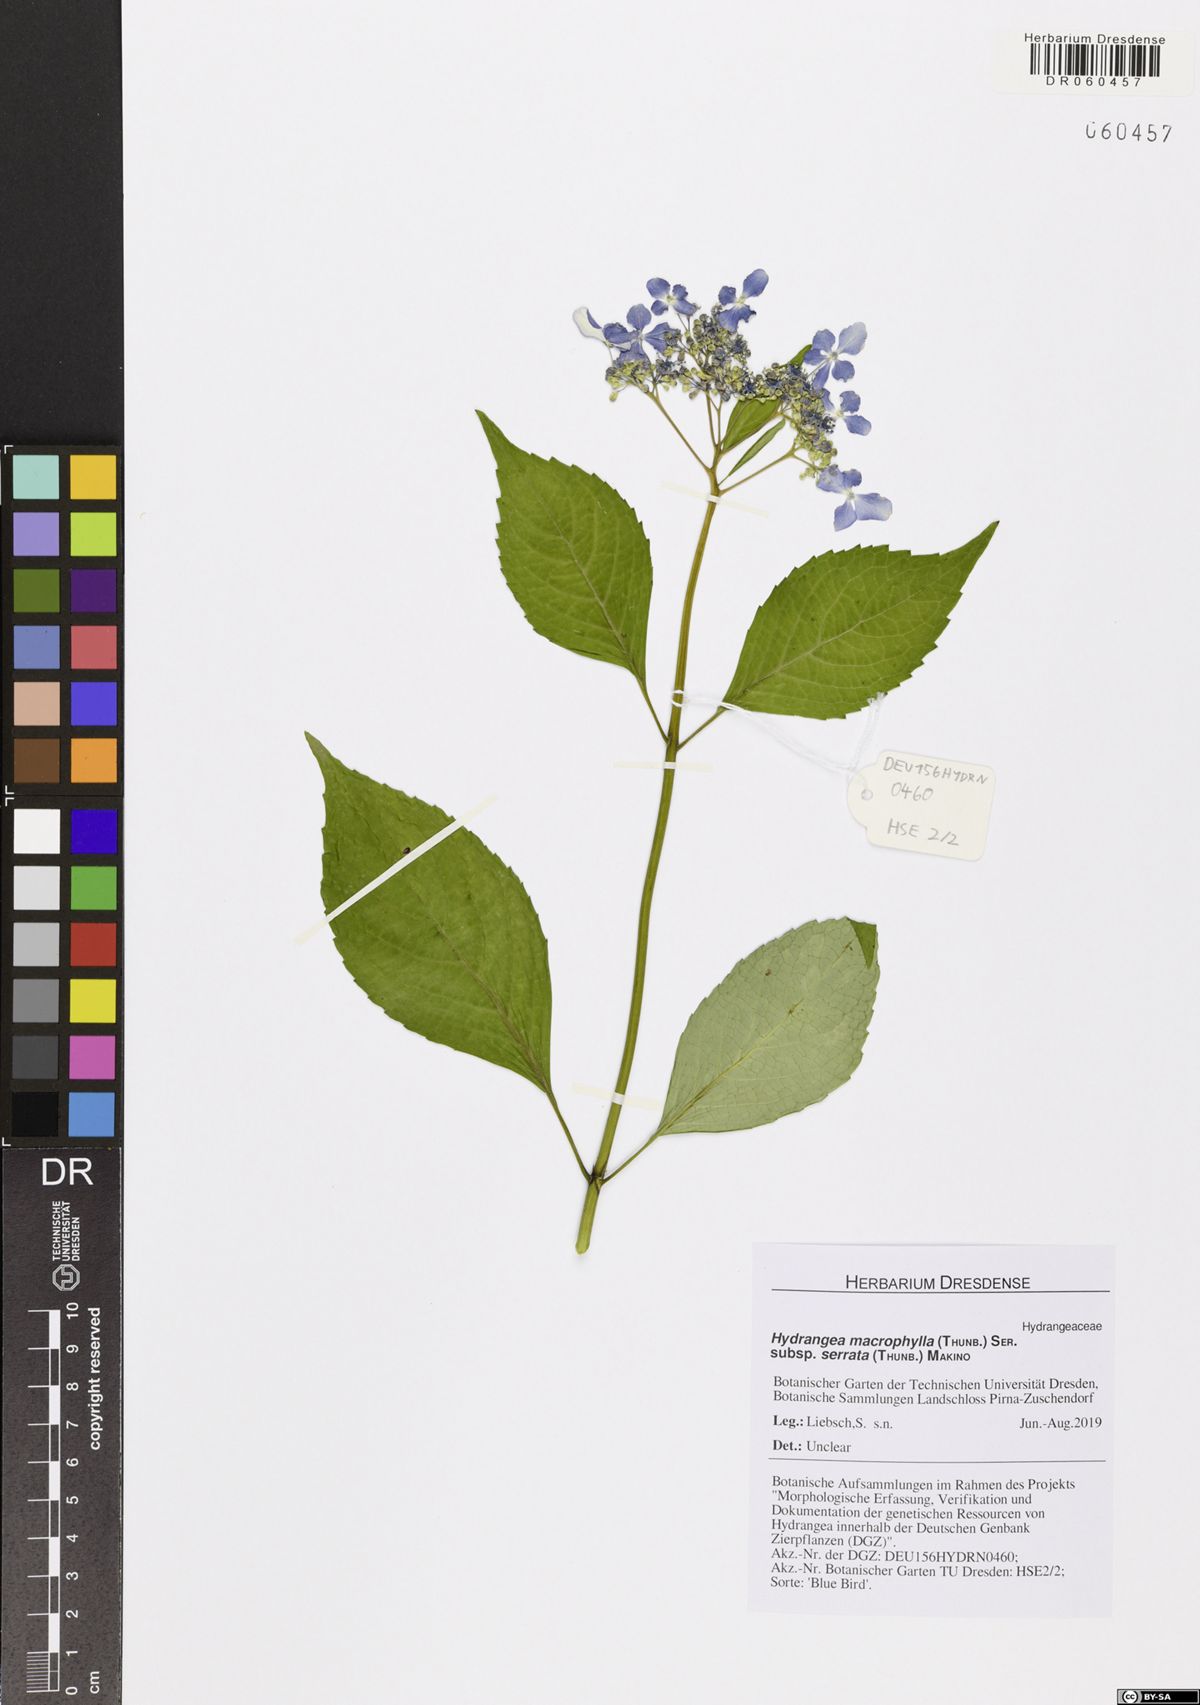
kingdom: Plantae
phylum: Tracheophyta
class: Magnoliopsida
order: Cornales
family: Hydrangeaceae
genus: Hydrangea
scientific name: Hydrangea serrata
